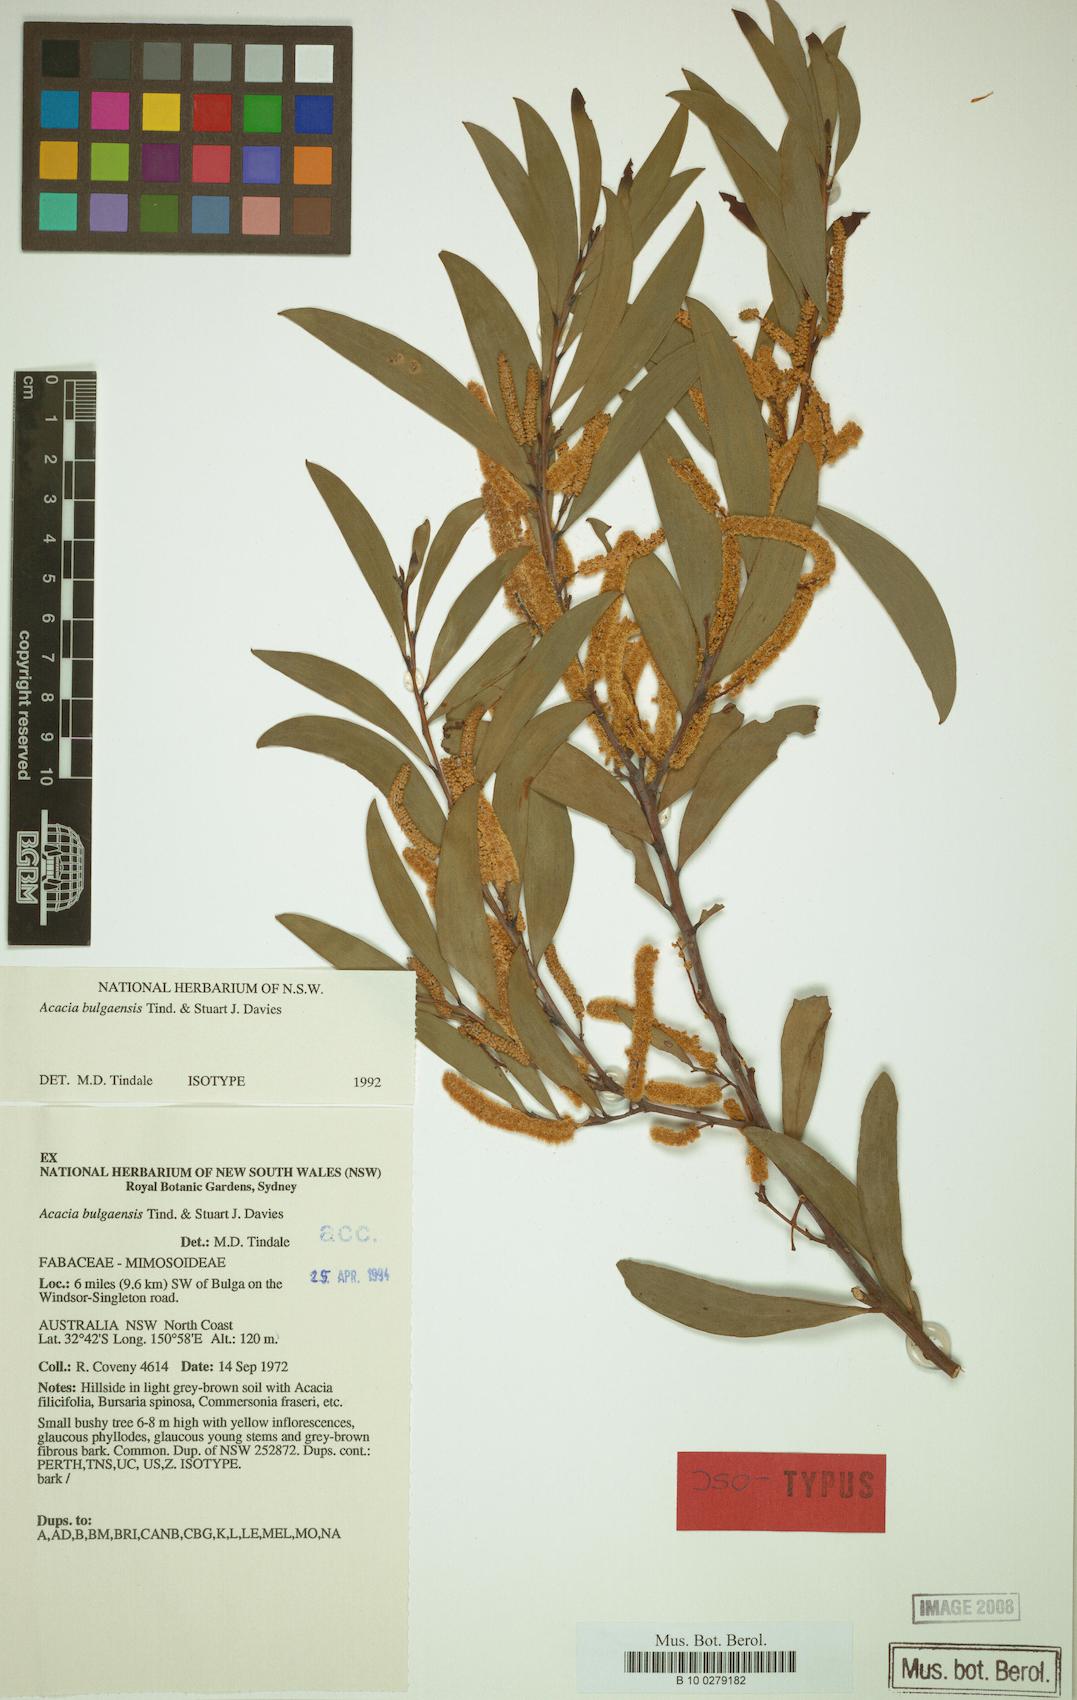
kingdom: Plantae
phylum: Tracheophyta
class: Magnoliopsida
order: Fabales
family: Fabaceae
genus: Acacia
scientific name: Acacia bulgaensis
